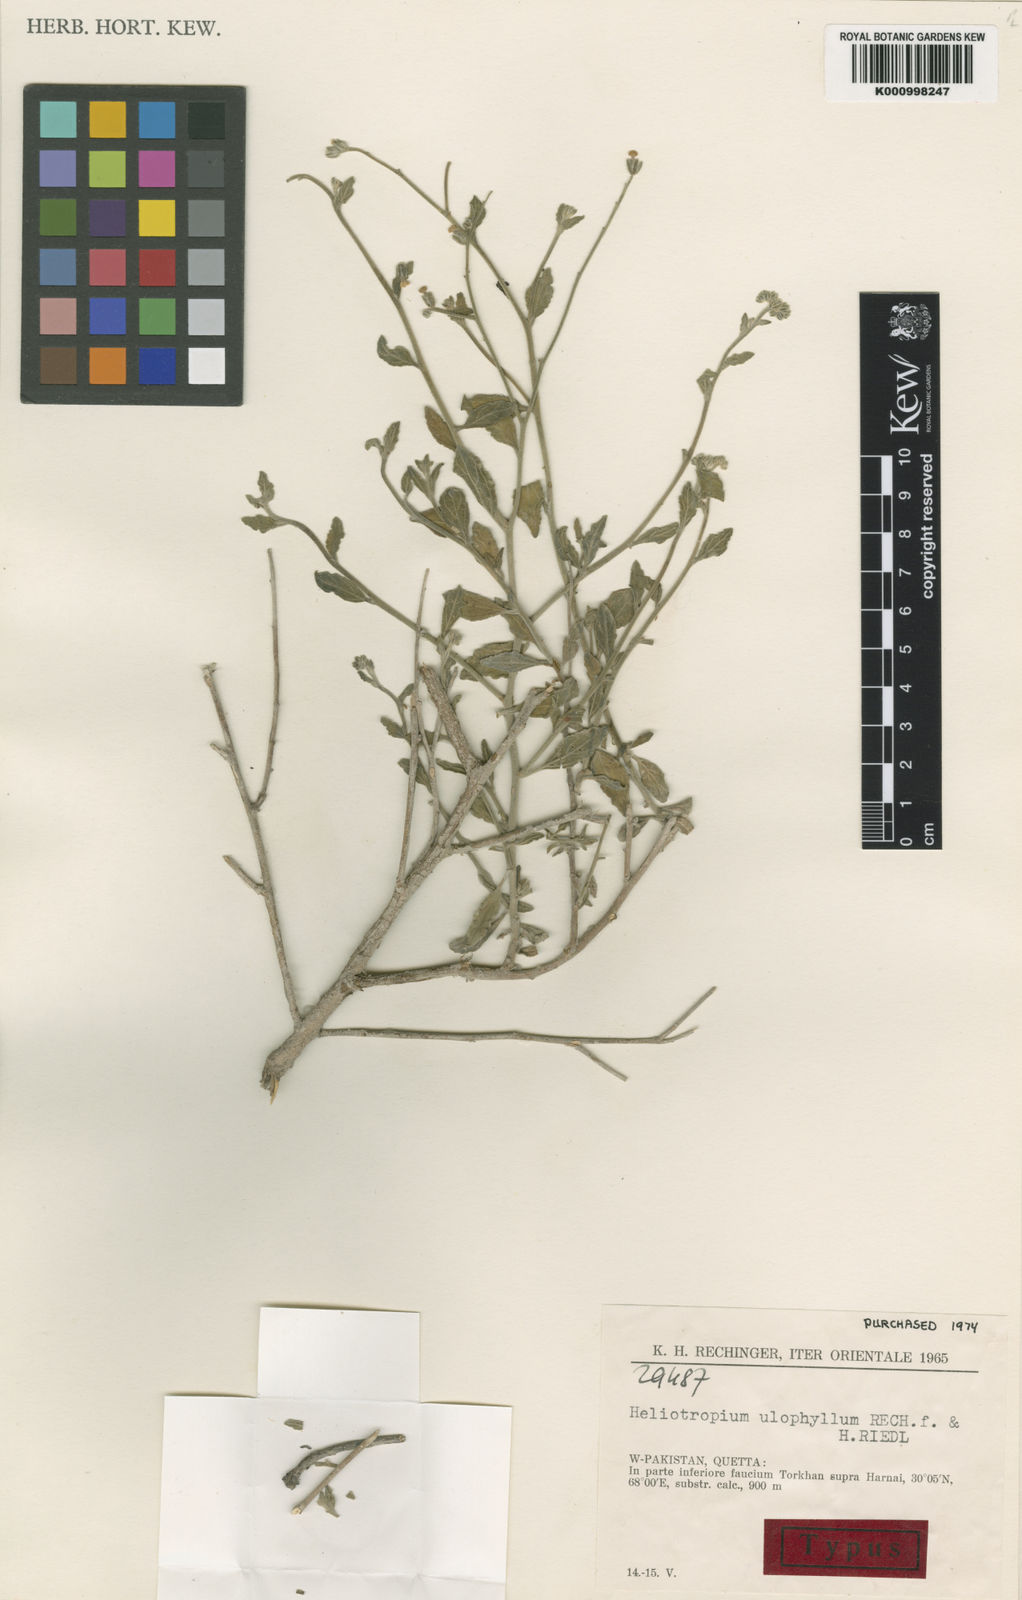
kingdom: Plantae
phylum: Tracheophyta
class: Magnoliopsida
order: Boraginales
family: Heliotropiaceae
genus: Heliotropium
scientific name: Heliotropium ulophyllum
